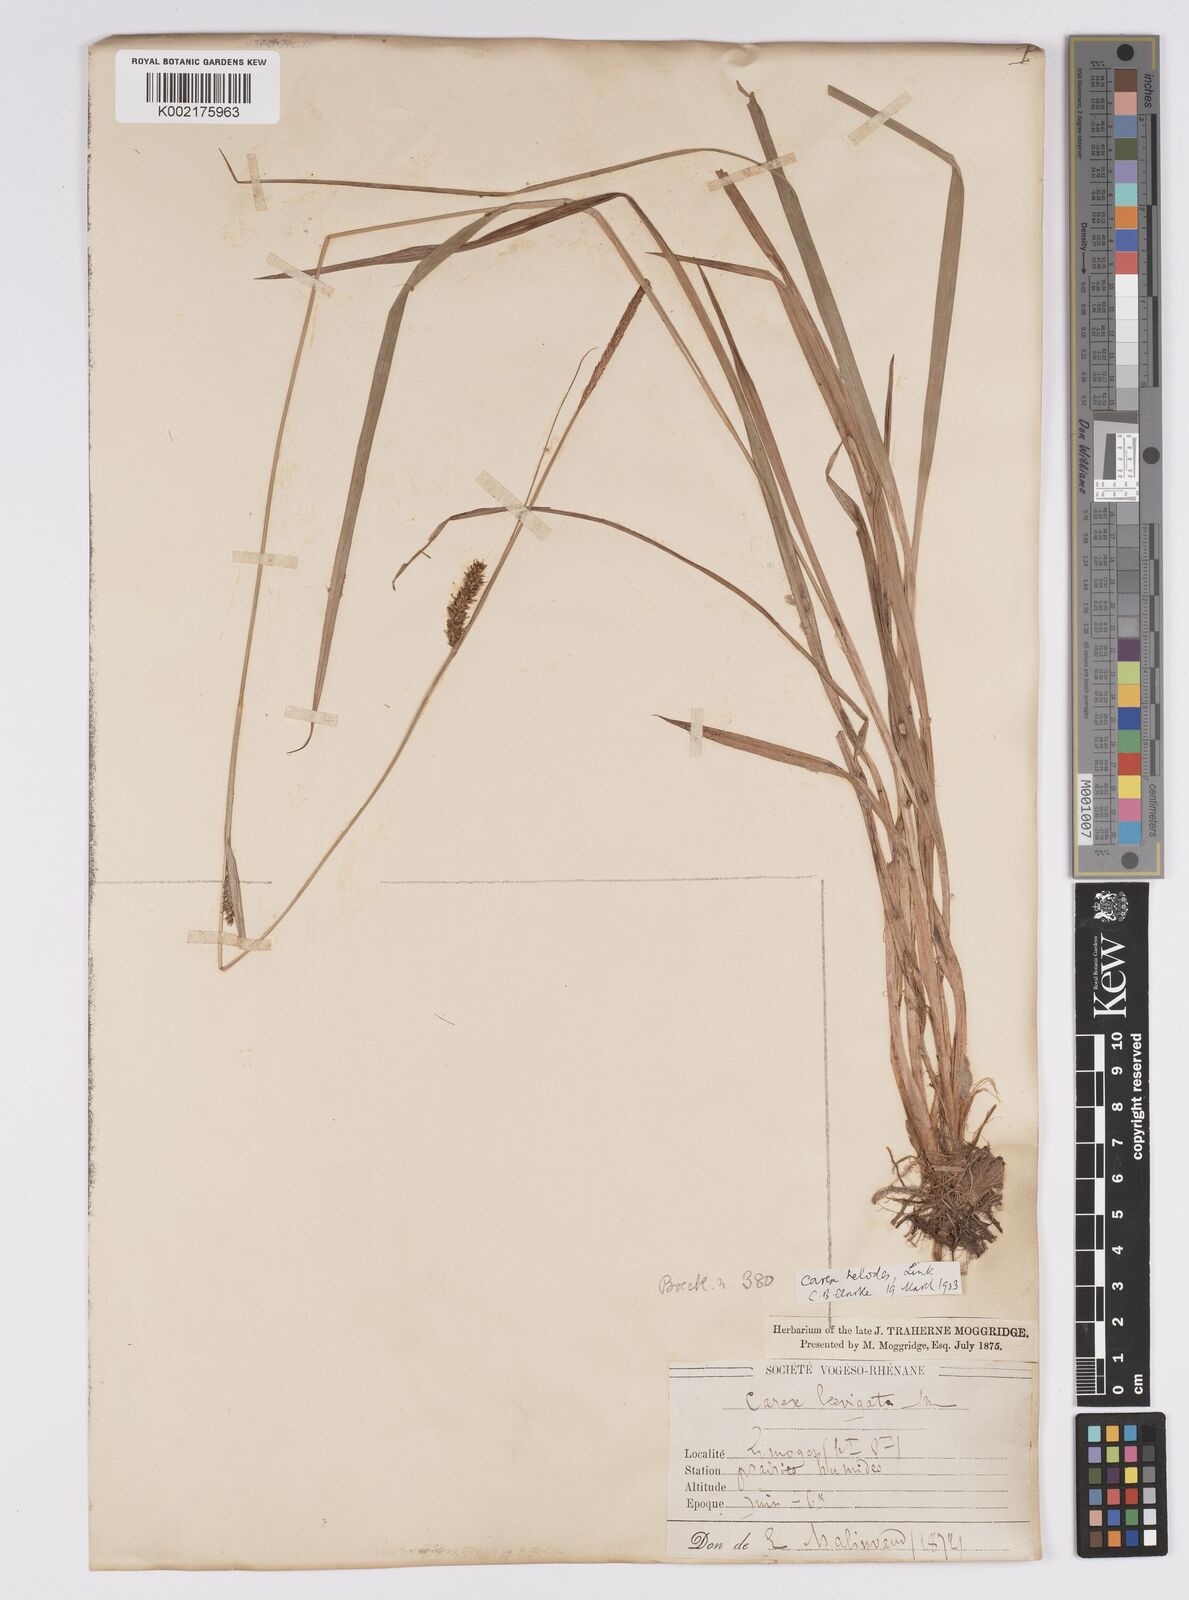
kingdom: Plantae
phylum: Tracheophyta
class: Liliopsida
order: Poales
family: Cyperaceae
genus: Carex
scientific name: Carex laevigata
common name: Smooth-stalked sedge
